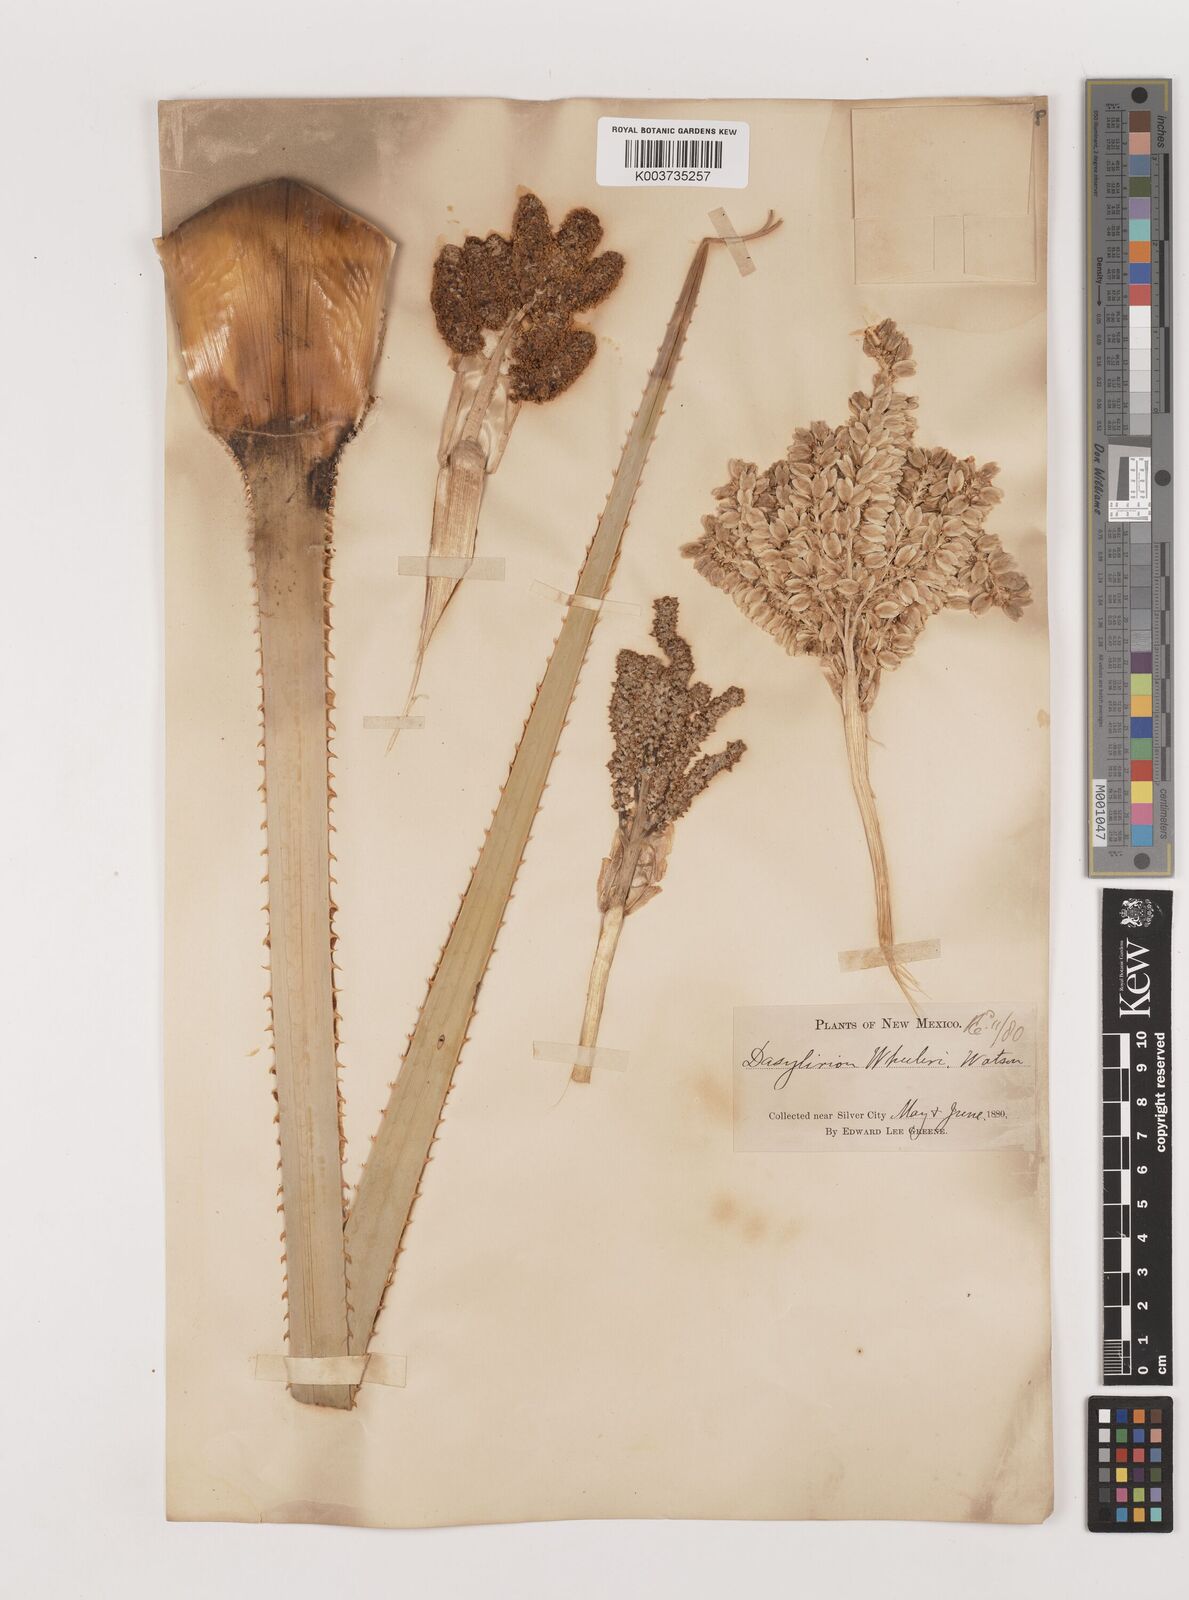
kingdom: Plantae
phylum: Tracheophyta
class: Liliopsida
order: Asparagales
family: Asparagaceae
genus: Dasylirion
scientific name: Dasylirion wheeleri
